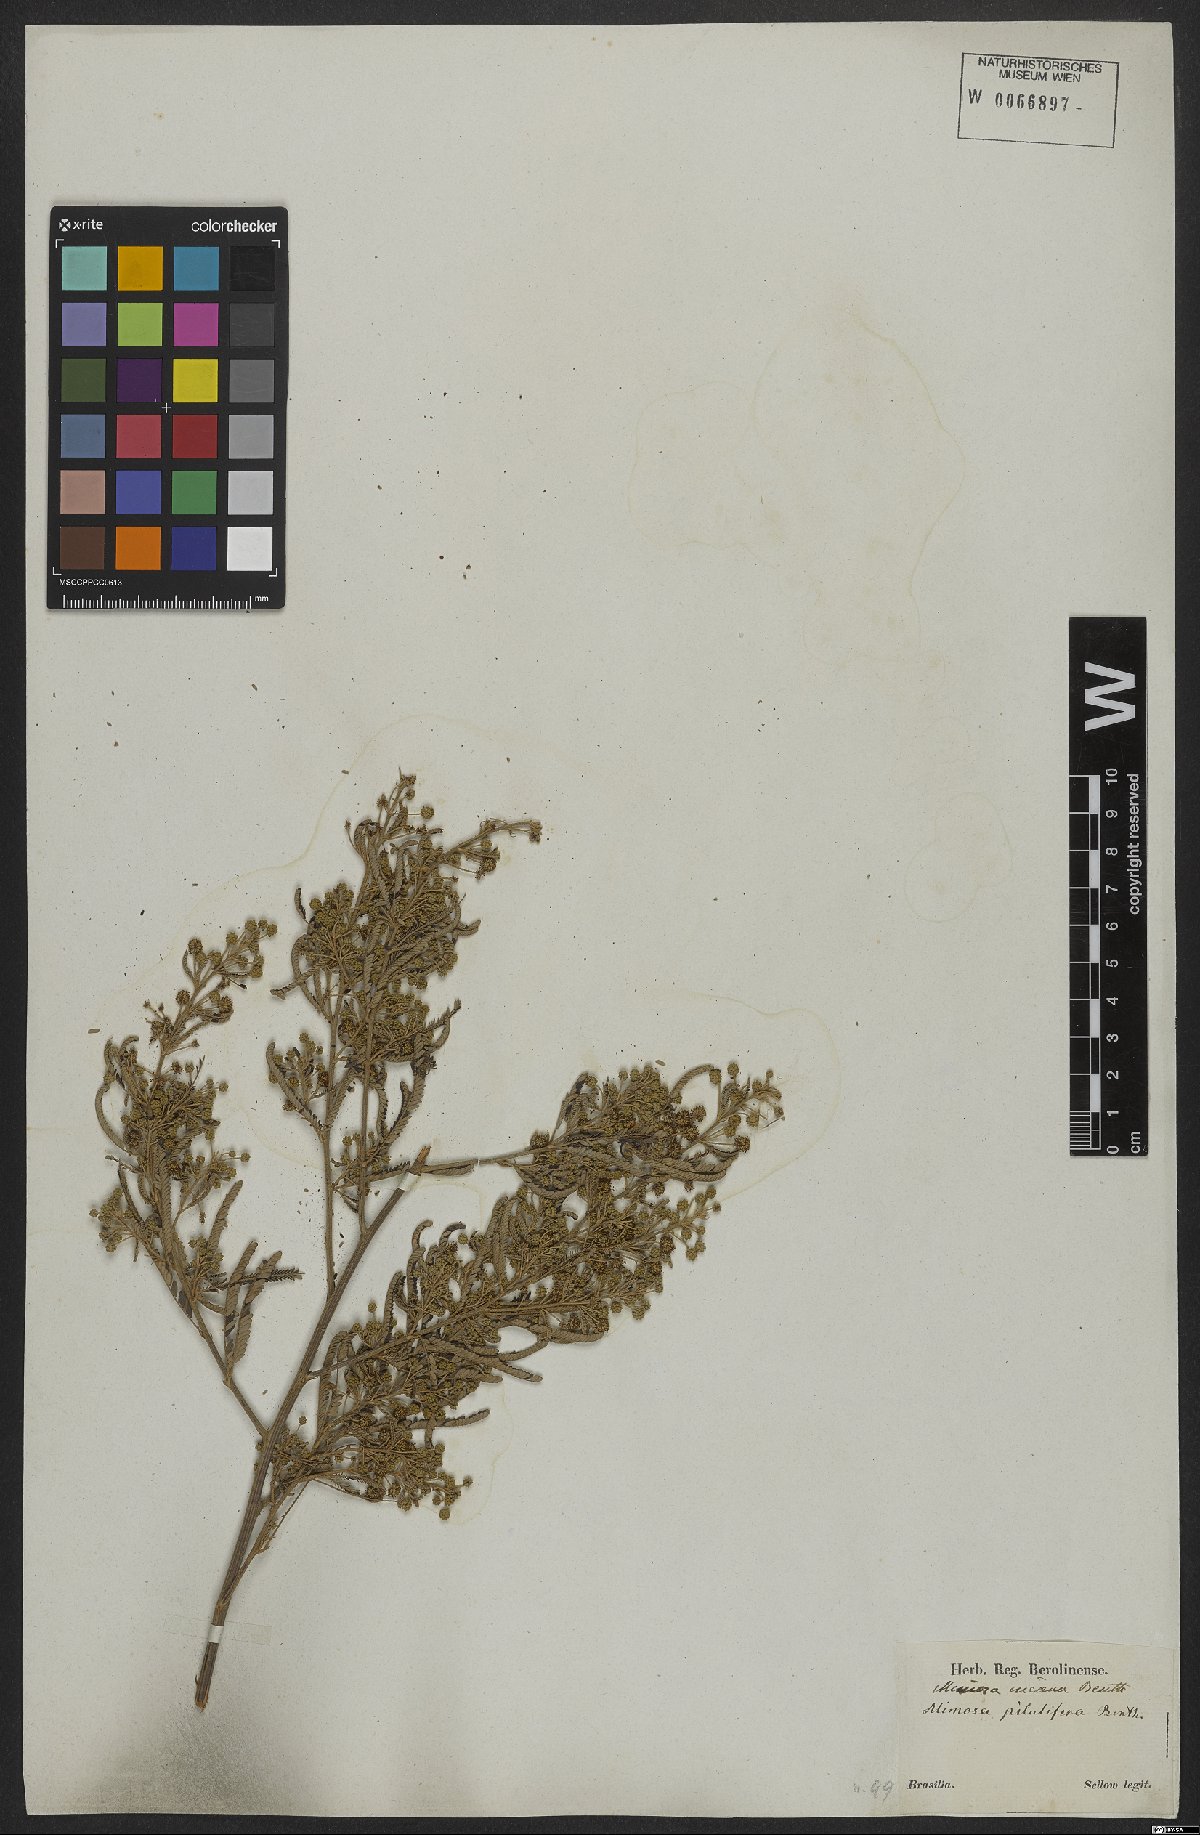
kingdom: Plantae
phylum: Tracheophyta
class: Magnoliopsida
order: Fabales
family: Fabaceae
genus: Mimosa
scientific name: Mimosa incana
